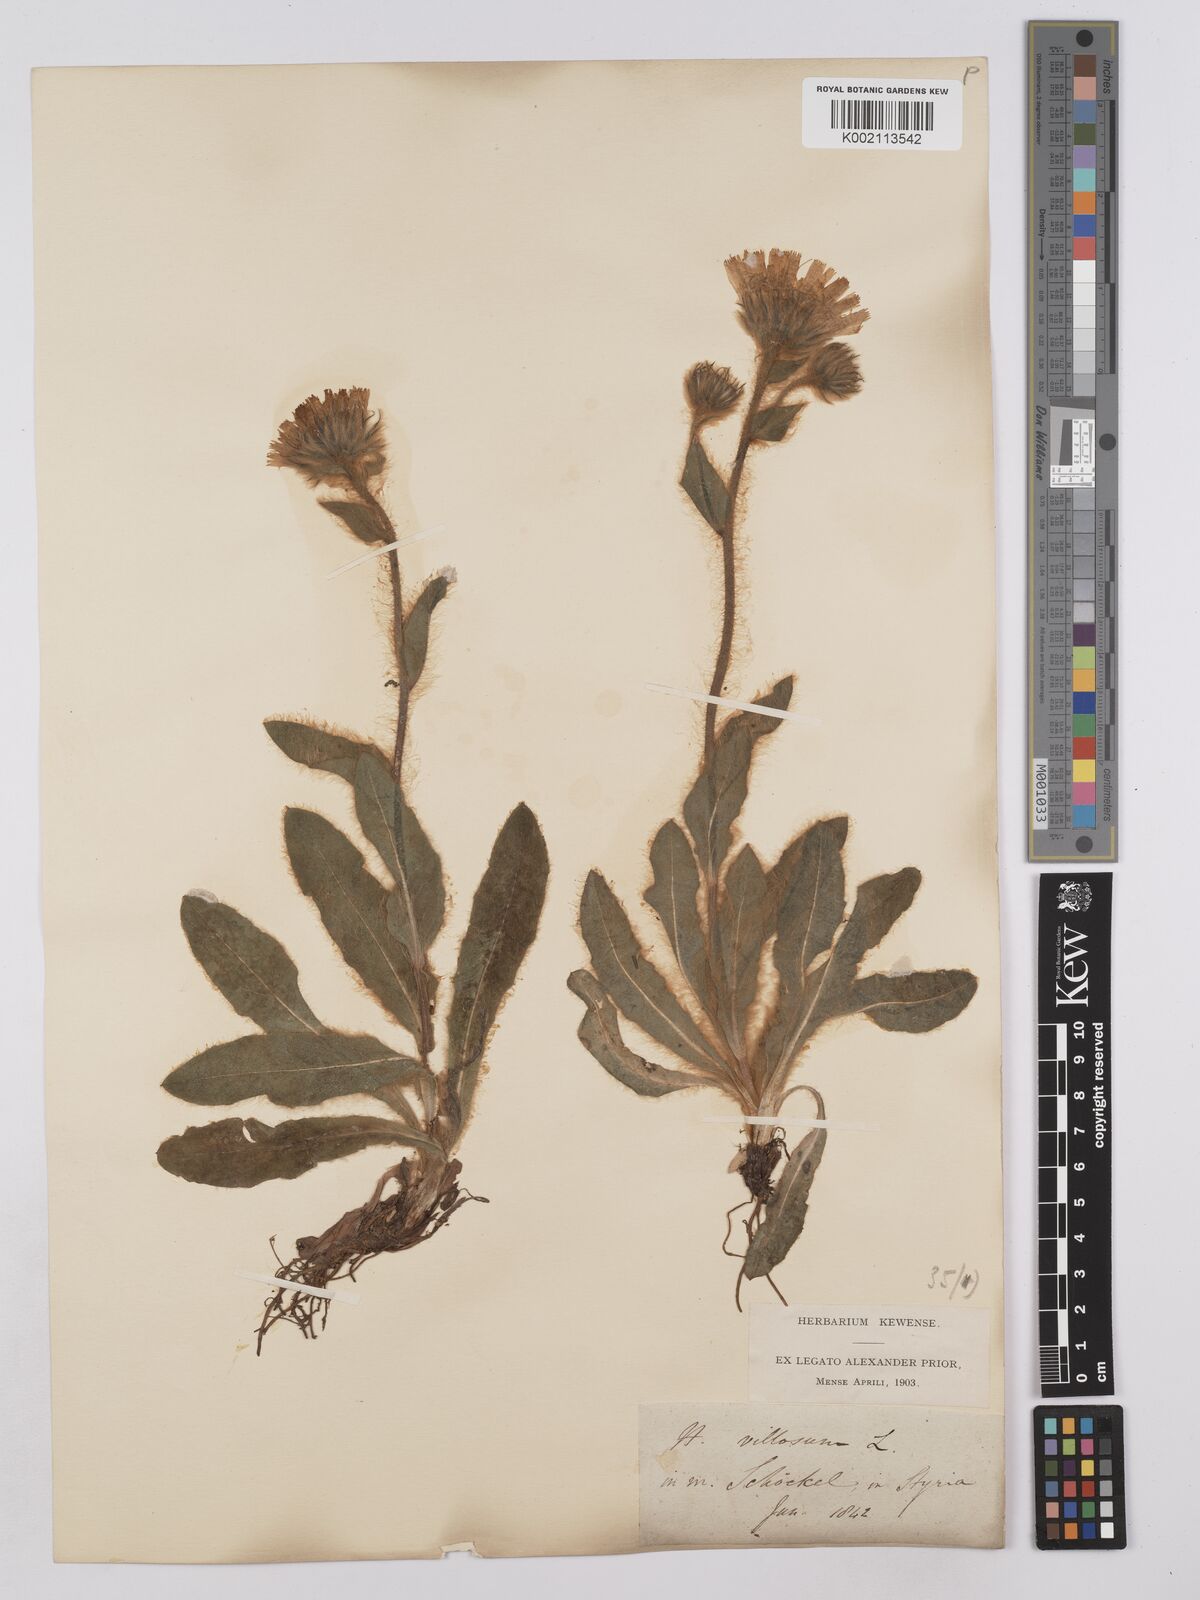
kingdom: Plantae
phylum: Tracheophyta
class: Magnoliopsida
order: Asterales
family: Asteraceae
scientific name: Asteraceae
